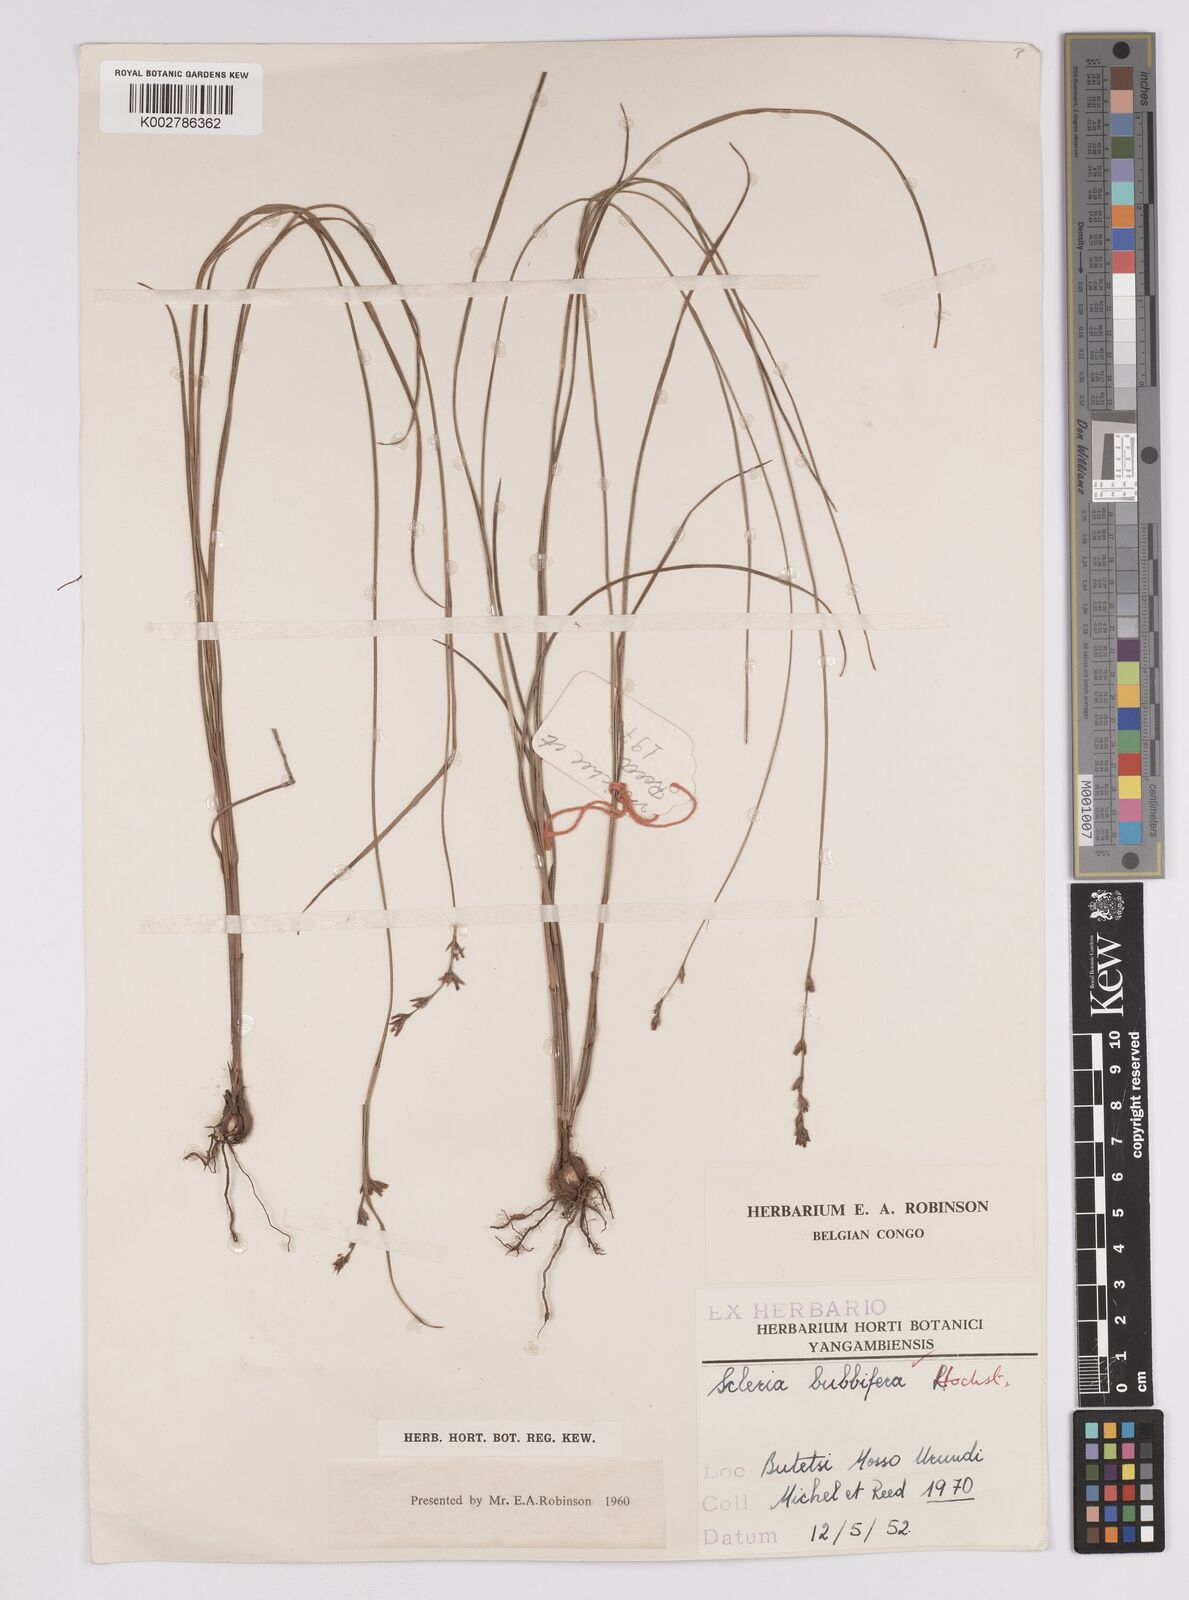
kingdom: Plantae
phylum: Tracheophyta
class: Liliopsida
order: Poales
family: Cyperaceae
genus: Scleria
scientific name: Scleria bulbifera
